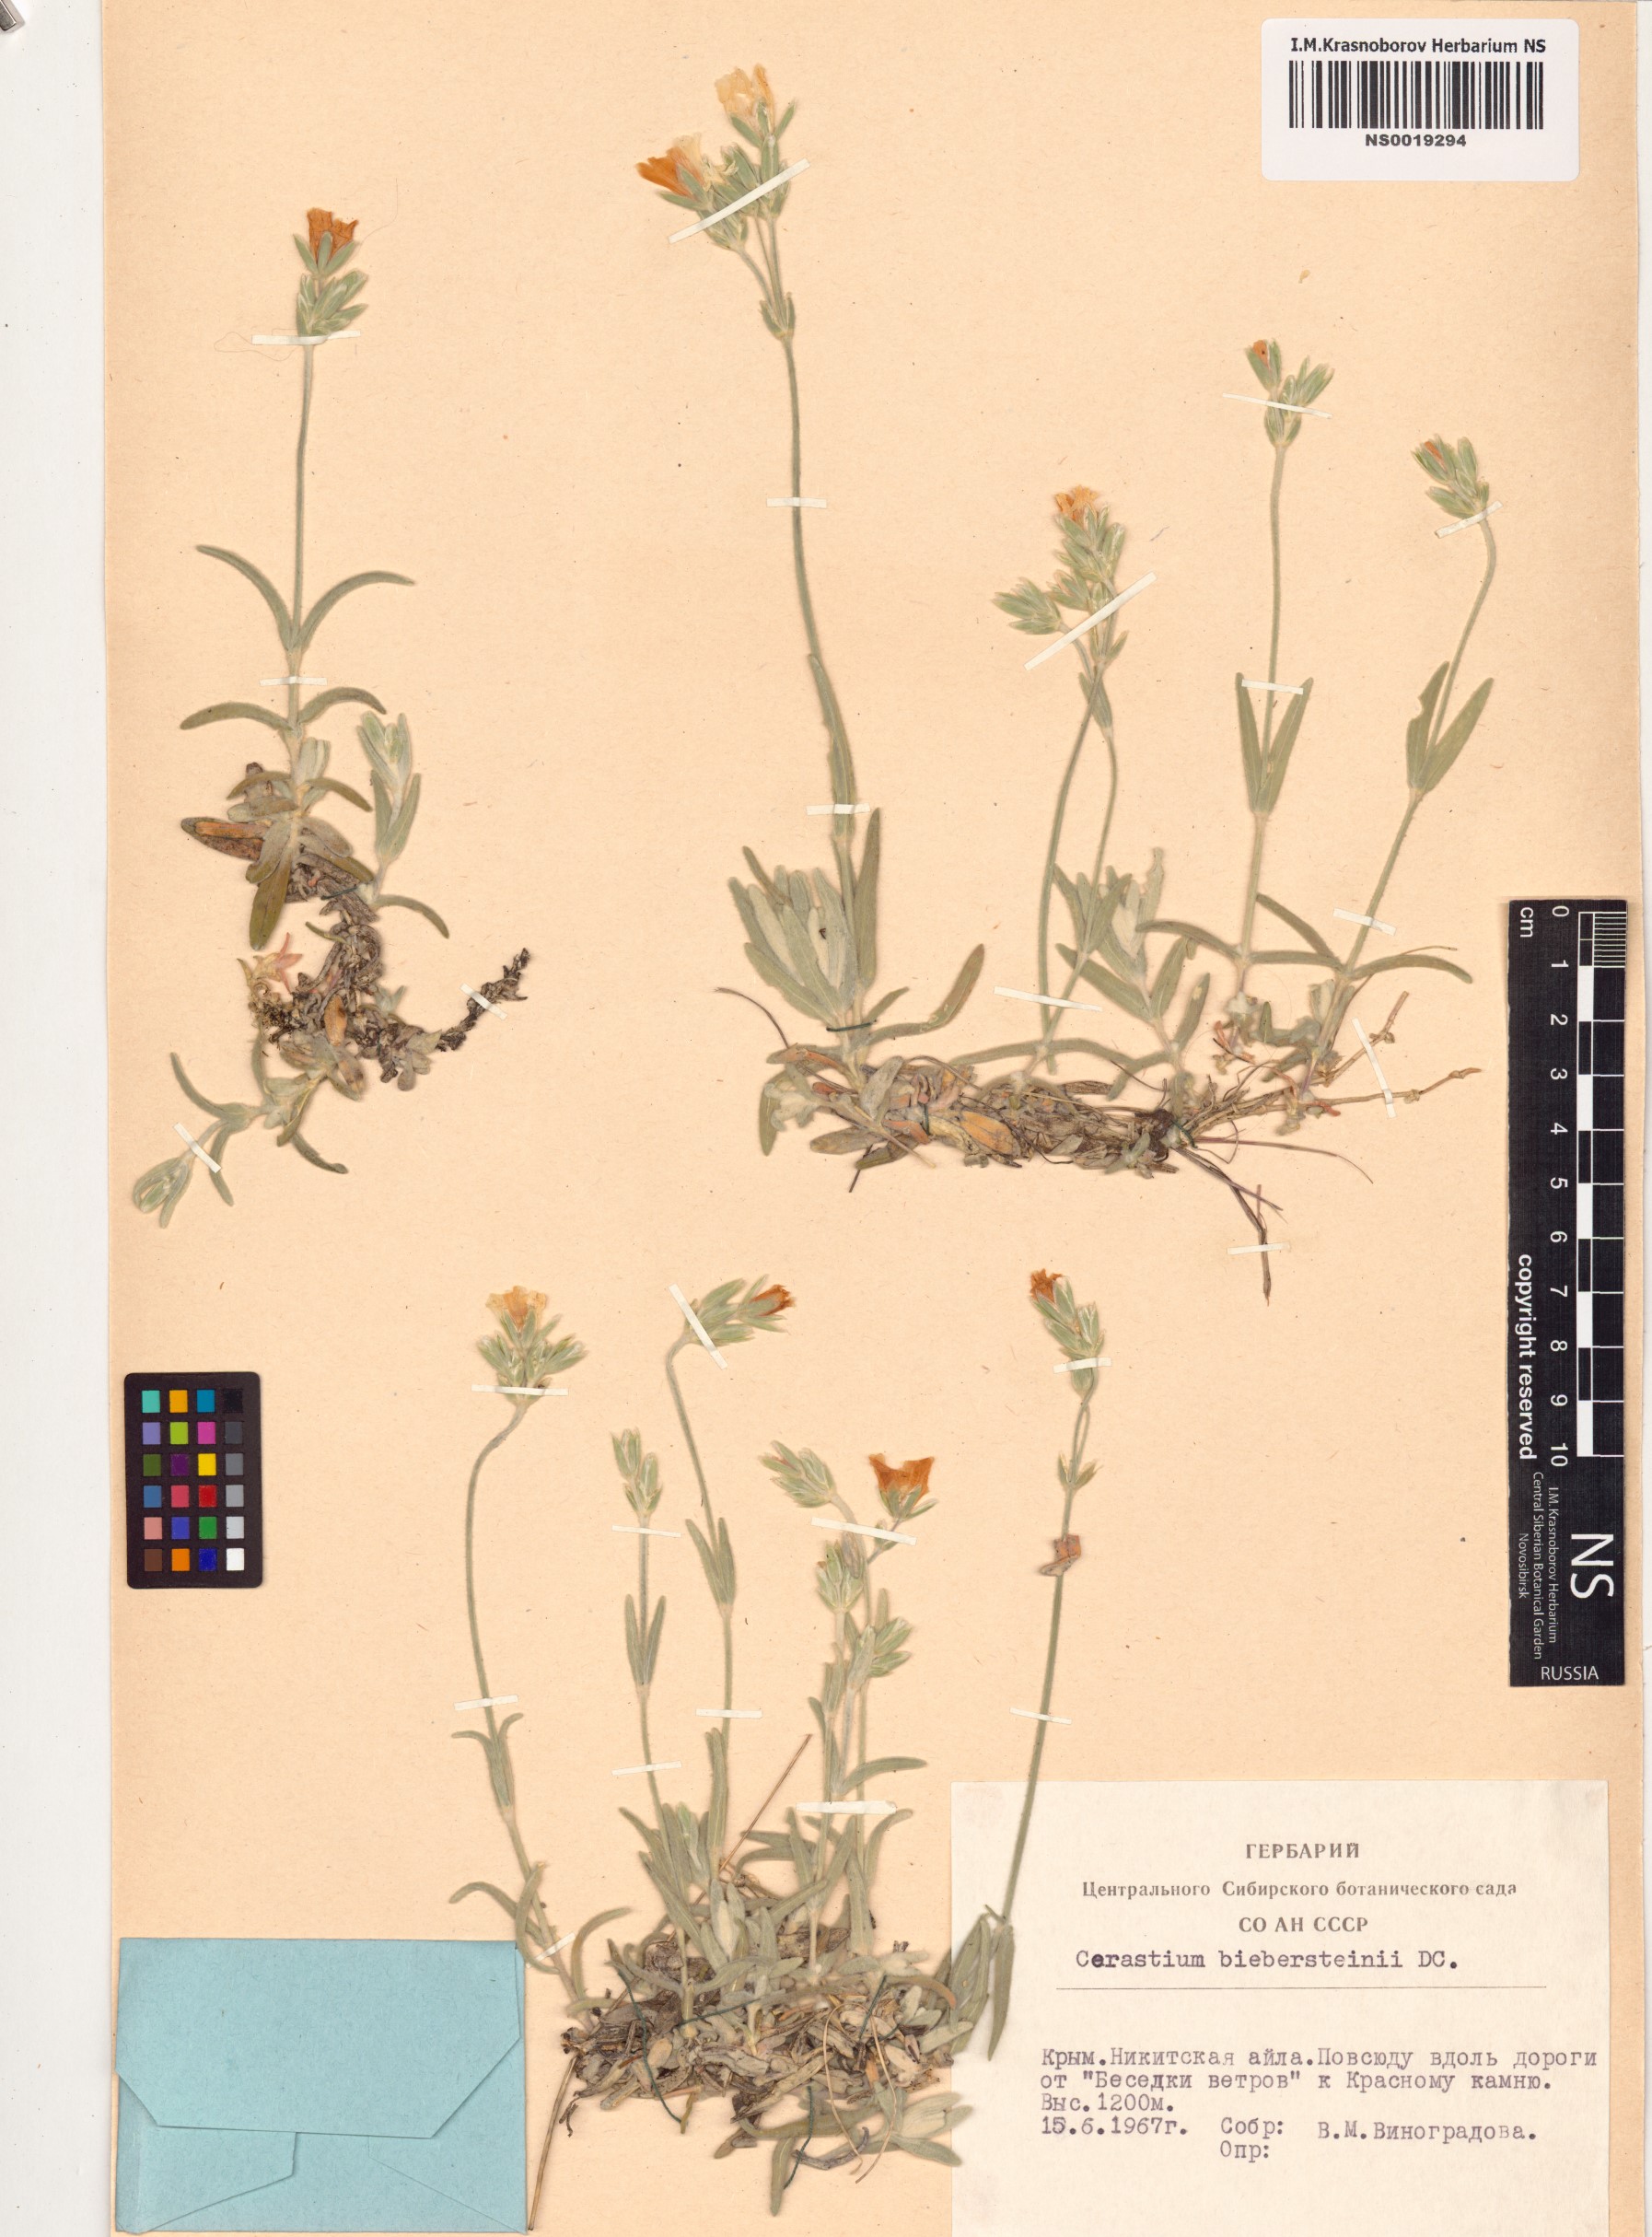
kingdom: Plantae
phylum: Tracheophyta
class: Magnoliopsida
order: Caryophyllales
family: Caryophyllaceae
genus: Cerastium
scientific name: Cerastium biebersteinii
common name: Snow-in-summer
